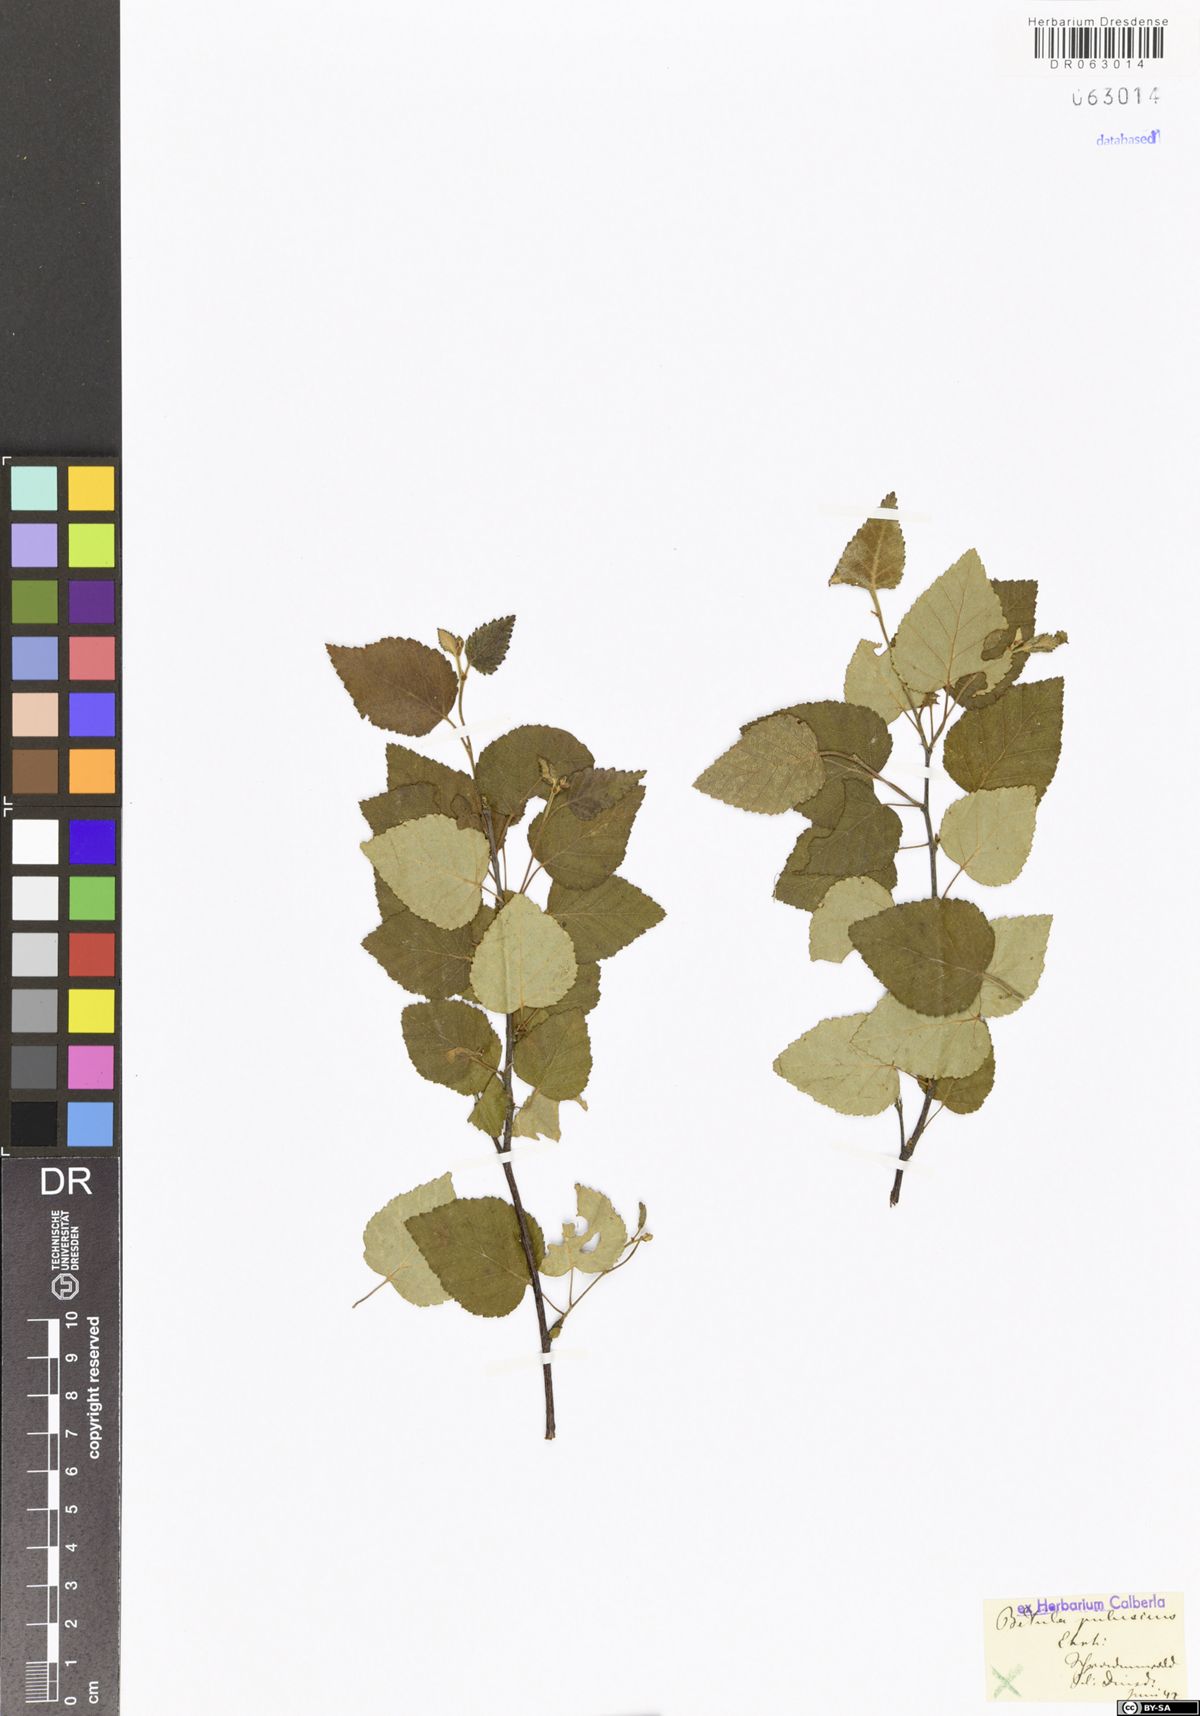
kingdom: Plantae
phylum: Tracheophyta
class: Magnoliopsida
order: Fagales
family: Betulaceae
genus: Betula
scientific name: Betula pubescens
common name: Downy birch
